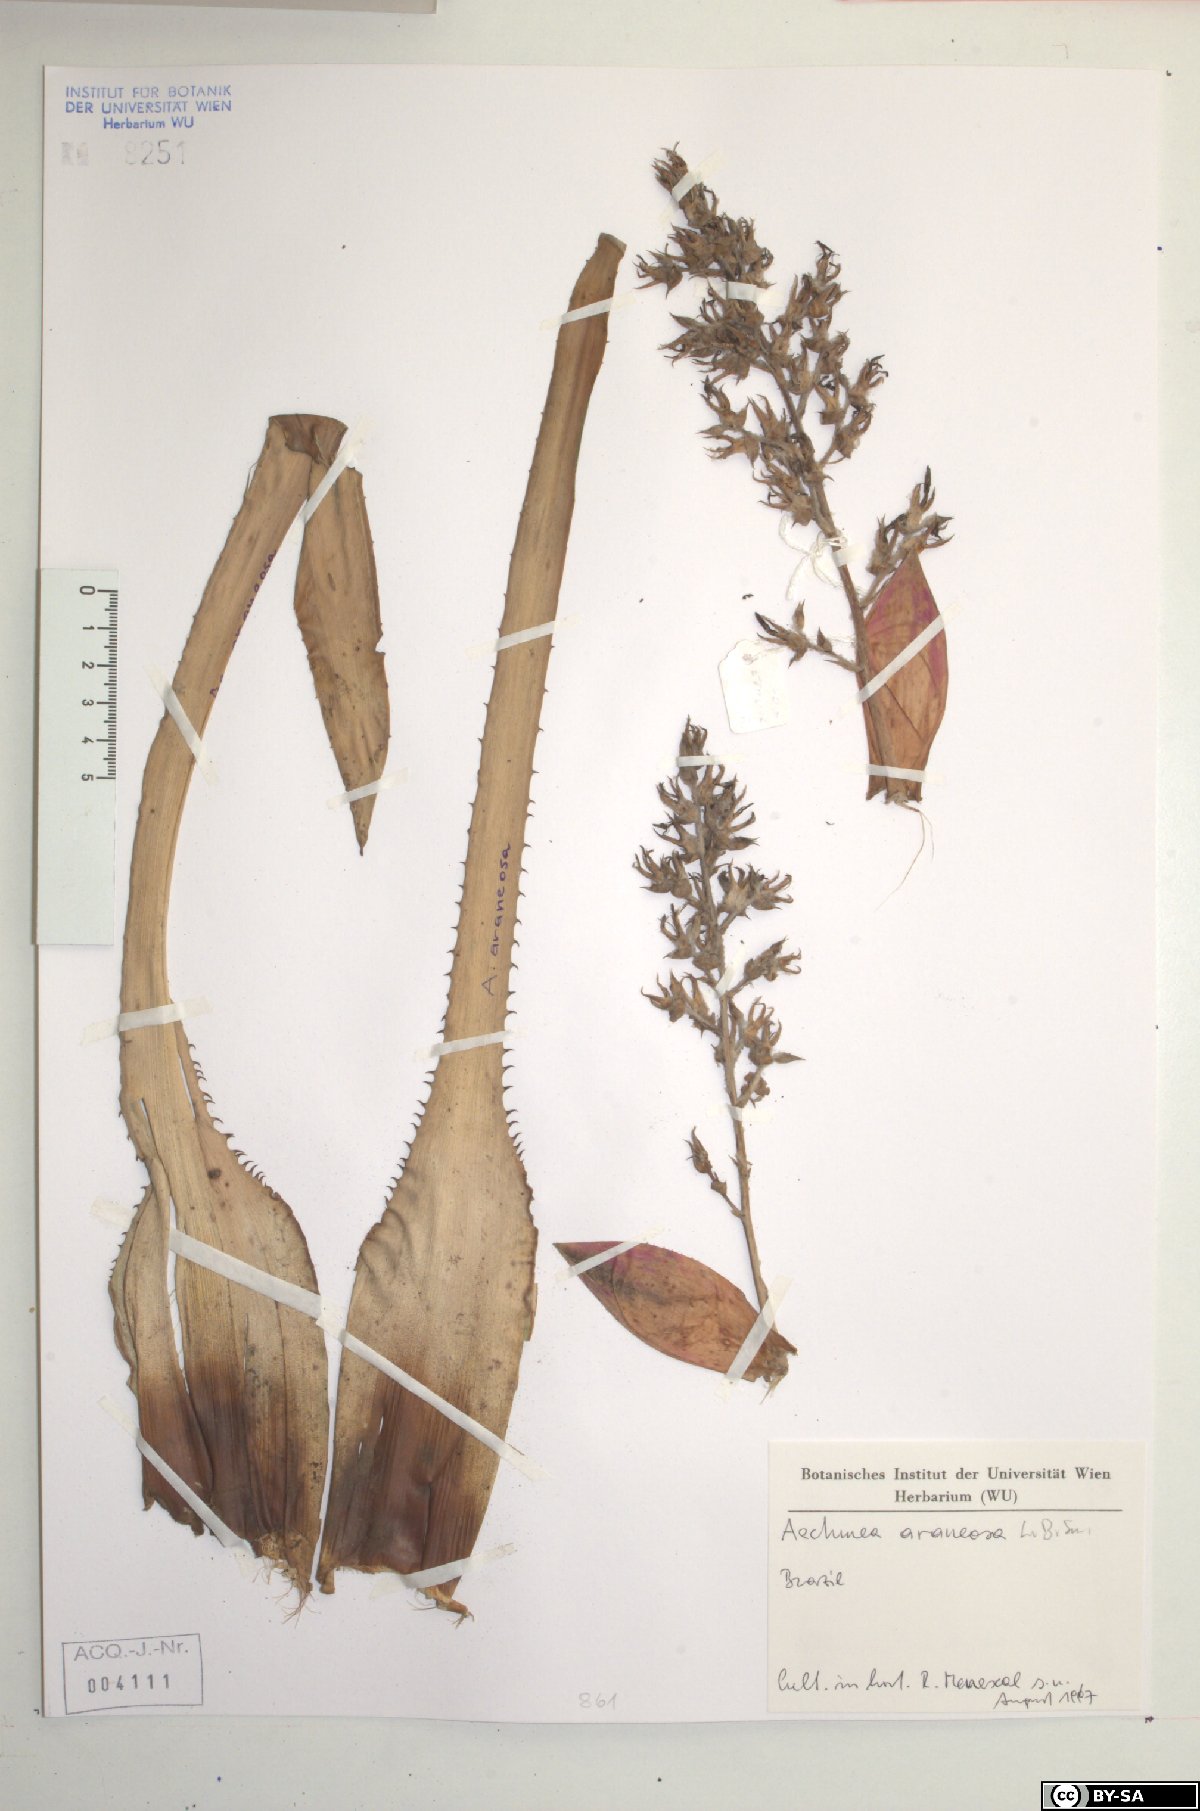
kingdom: Plantae
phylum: Tracheophyta
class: Liliopsida
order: Poales
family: Bromeliaceae
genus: Aechmea
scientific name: Aechmea araneosa
